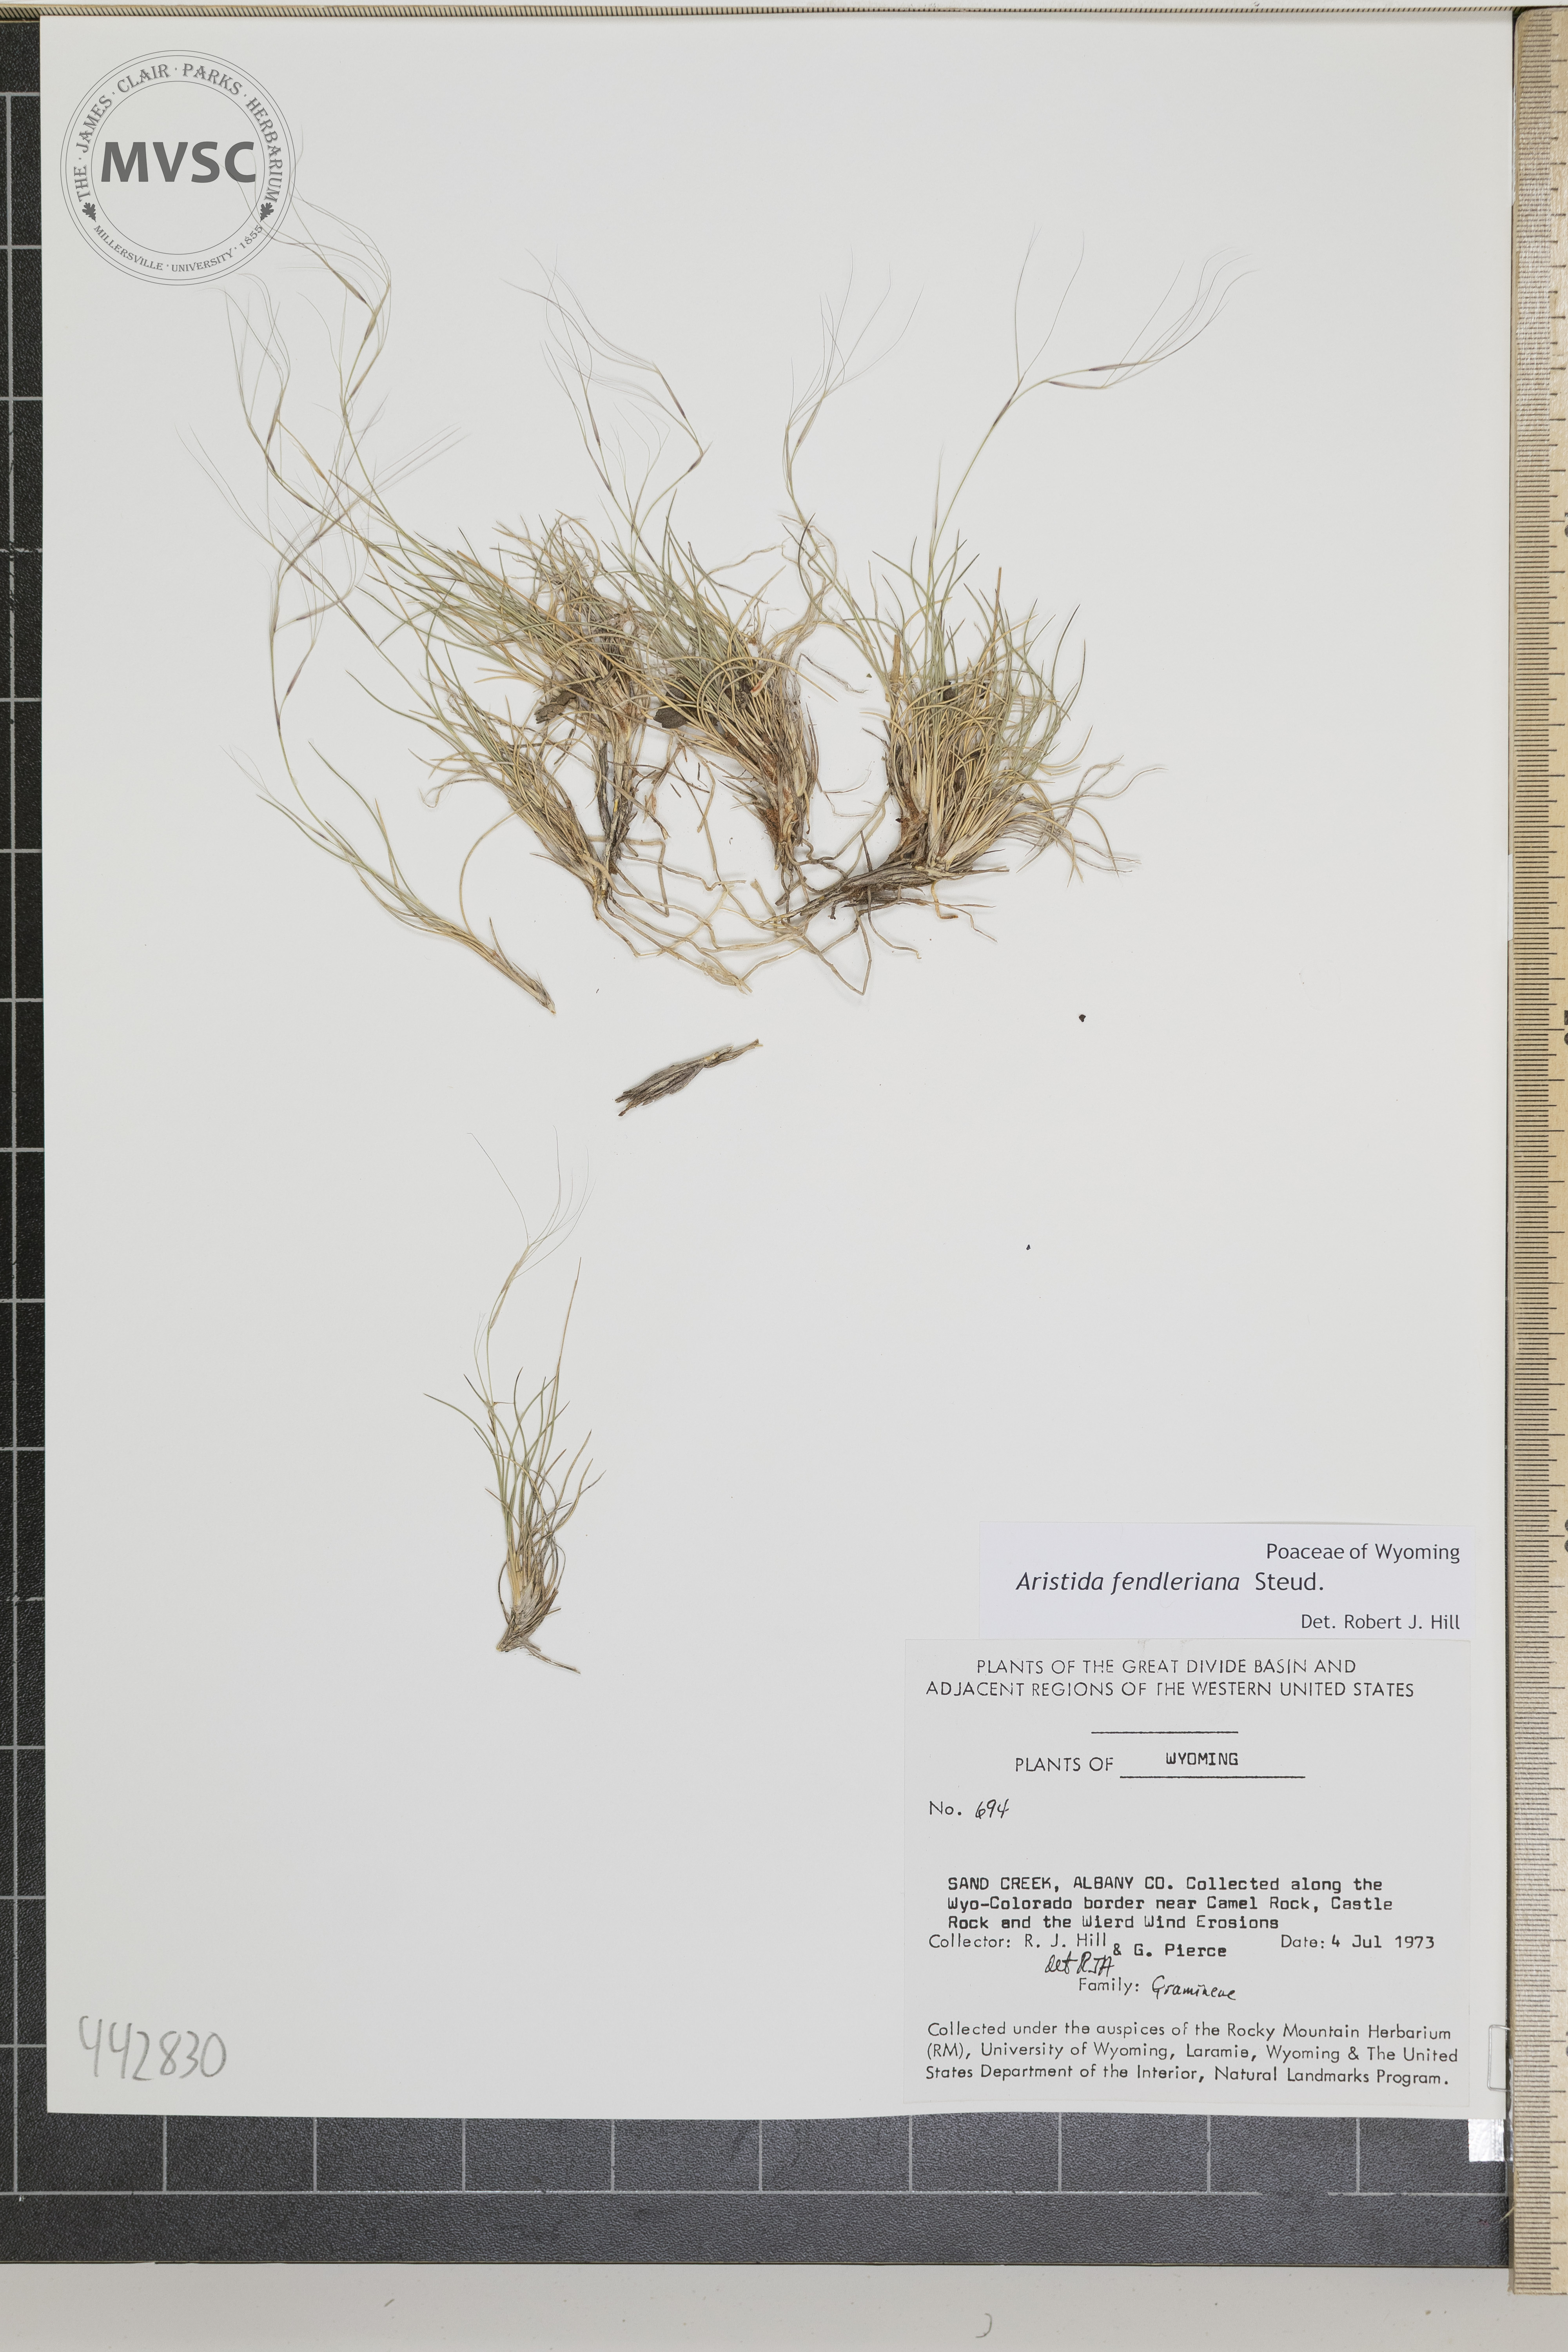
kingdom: Plantae
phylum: Tracheophyta
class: Liliopsida
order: Poales
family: Poaceae
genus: Aristida
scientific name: Aristida fendleriana
